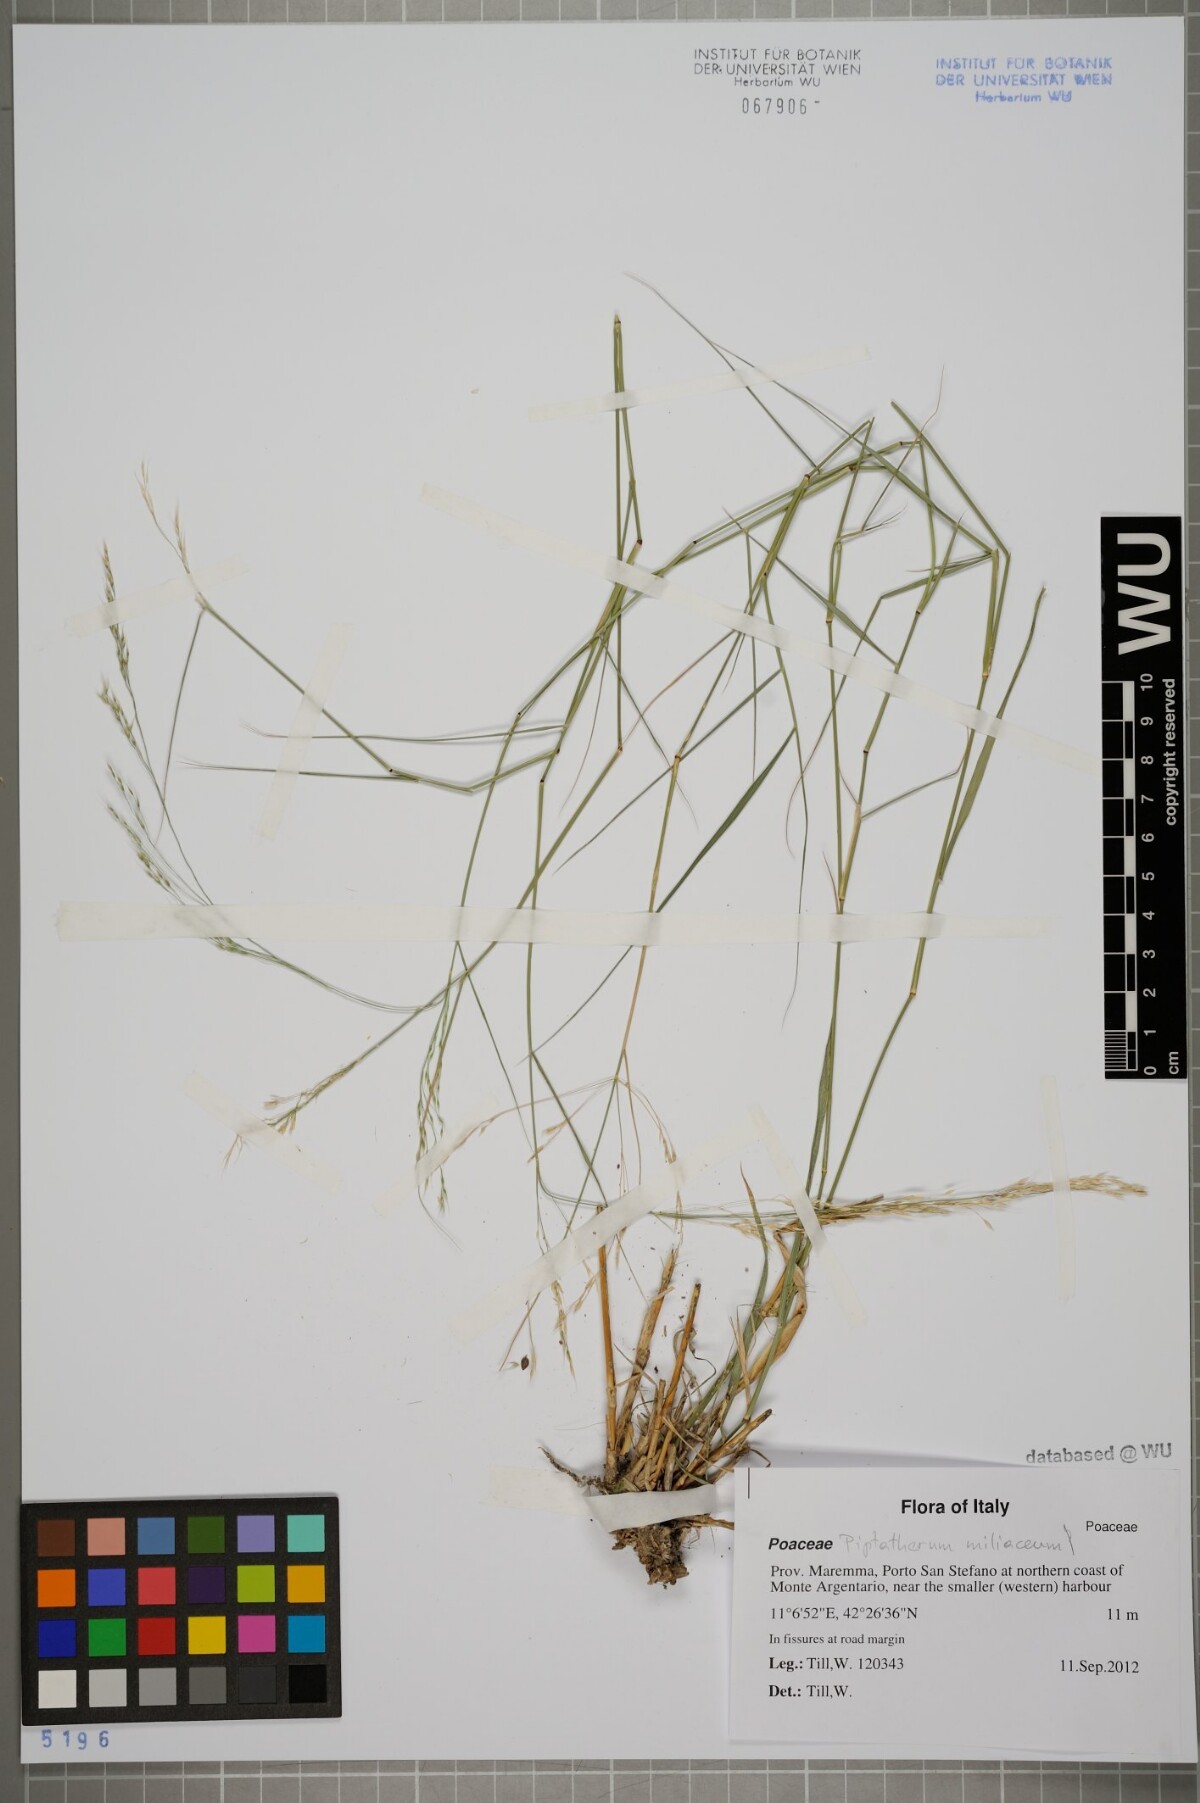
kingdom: Plantae
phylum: Tracheophyta
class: Liliopsida
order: Poales
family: Poaceae
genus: Oloptum
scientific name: Oloptum miliaceum
